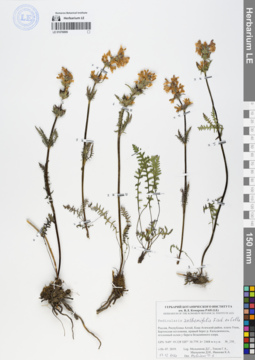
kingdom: Plantae
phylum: Tracheophyta
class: Magnoliopsida
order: Lamiales
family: Orobanchaceae
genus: Pedicularis
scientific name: Pedicularis anthemifolia
